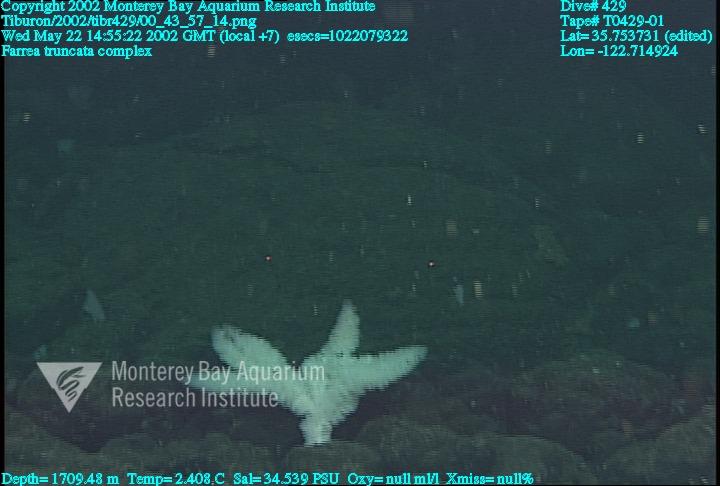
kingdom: Animalia
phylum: Porifera
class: Hexactinellida
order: Sceptrulophora
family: Farreidae
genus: Farrea
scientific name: Farrea truncata
